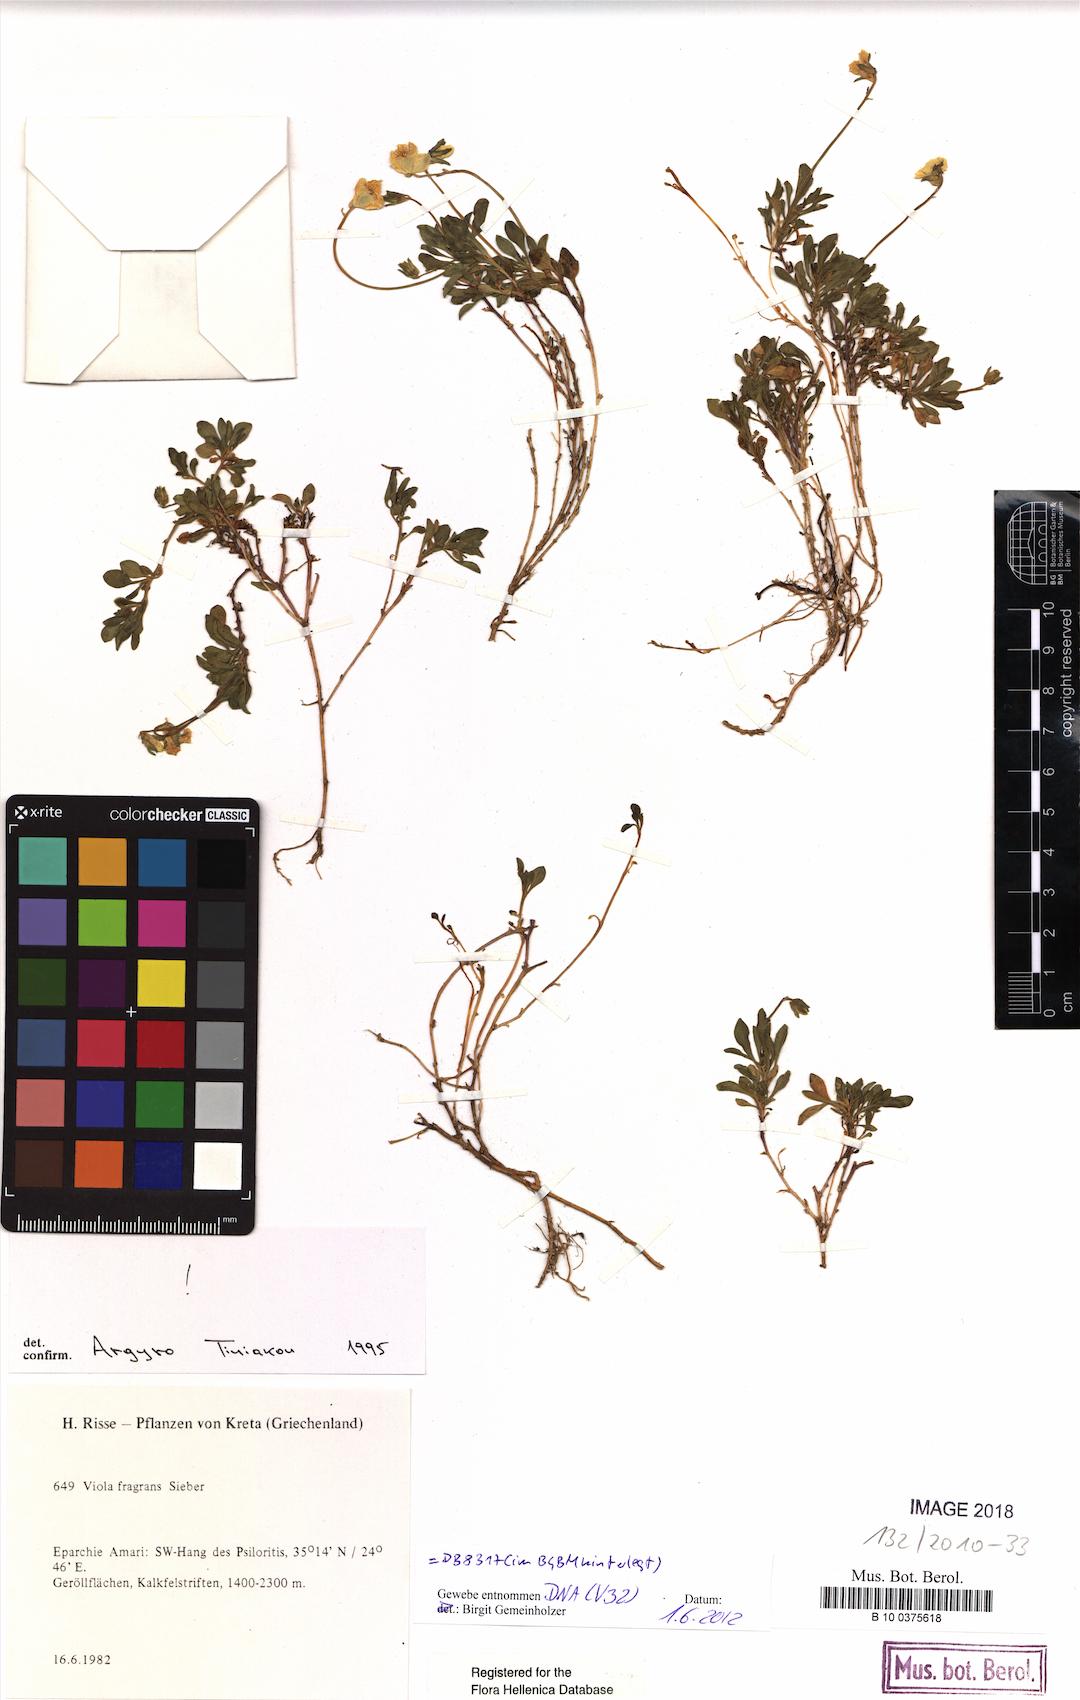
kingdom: Plantae
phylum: Tracheophyta
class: Magnoliopsida
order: Malpighiales
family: Violaceae
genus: Viola
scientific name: Viola fragrans
